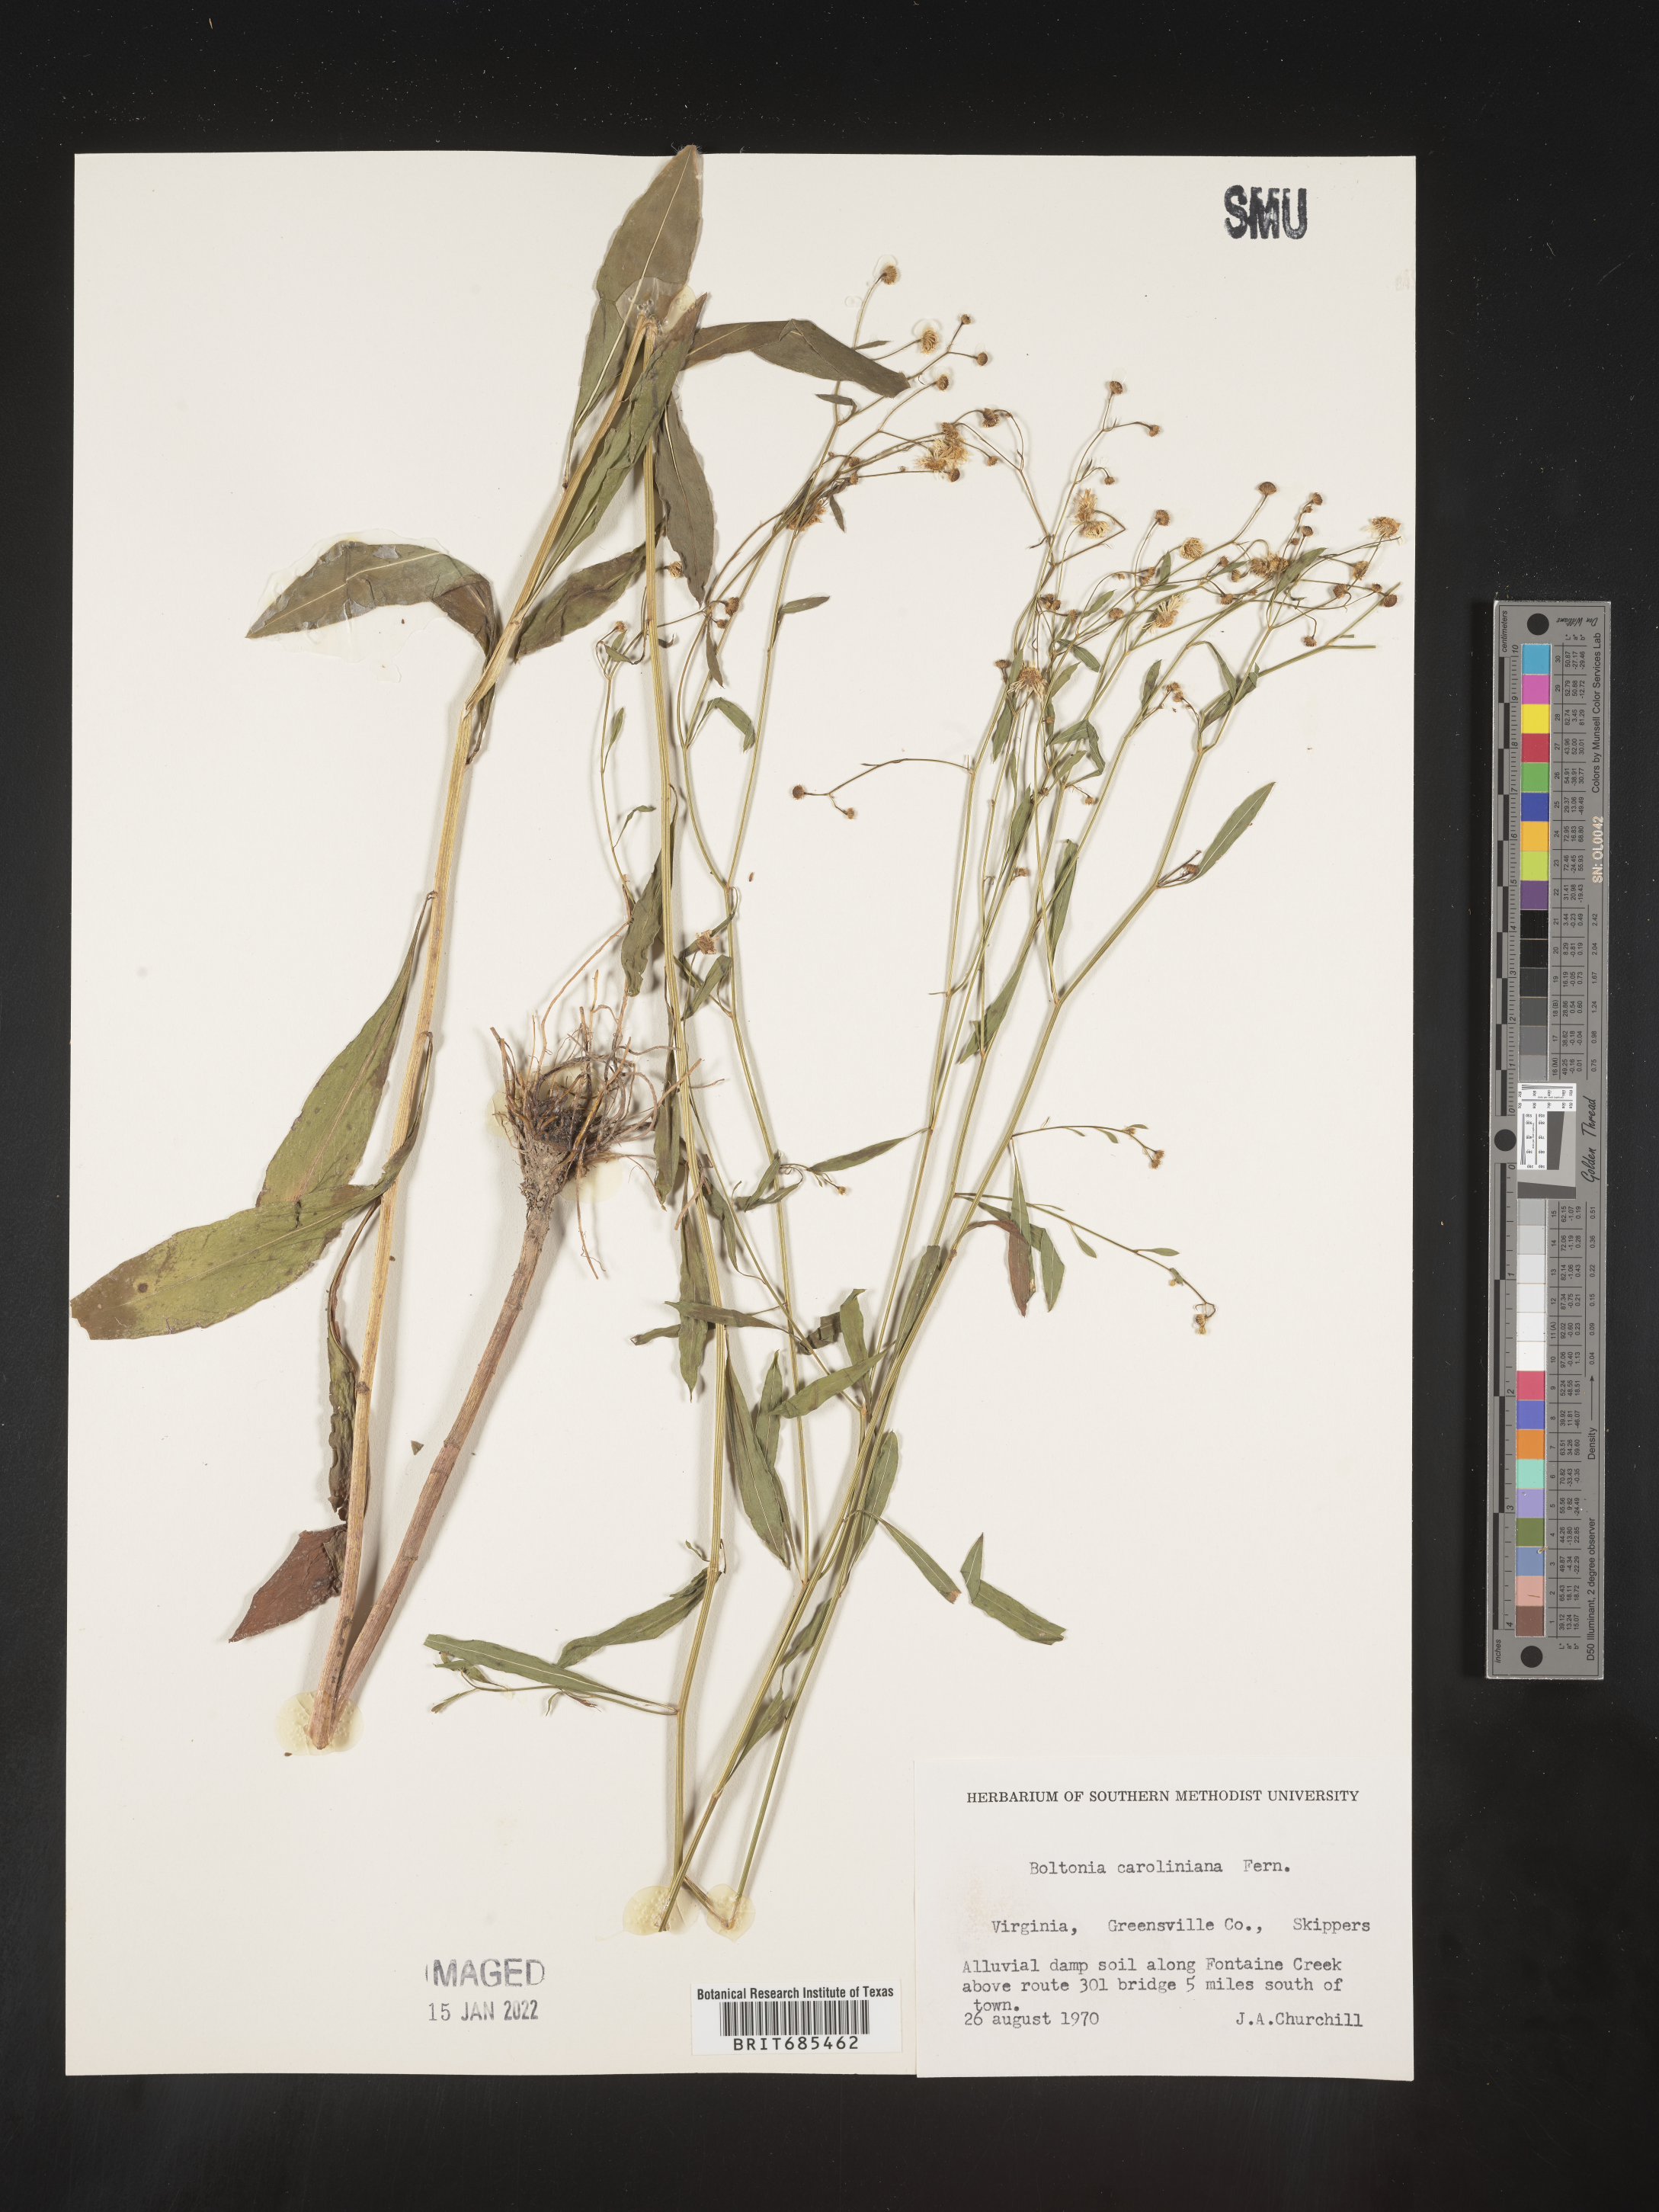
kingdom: Plantae
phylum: Tracheophyta
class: Magnoliopsida
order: Asterales
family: Asteraceae
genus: Boltonia
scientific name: Boltonia caroliniana
